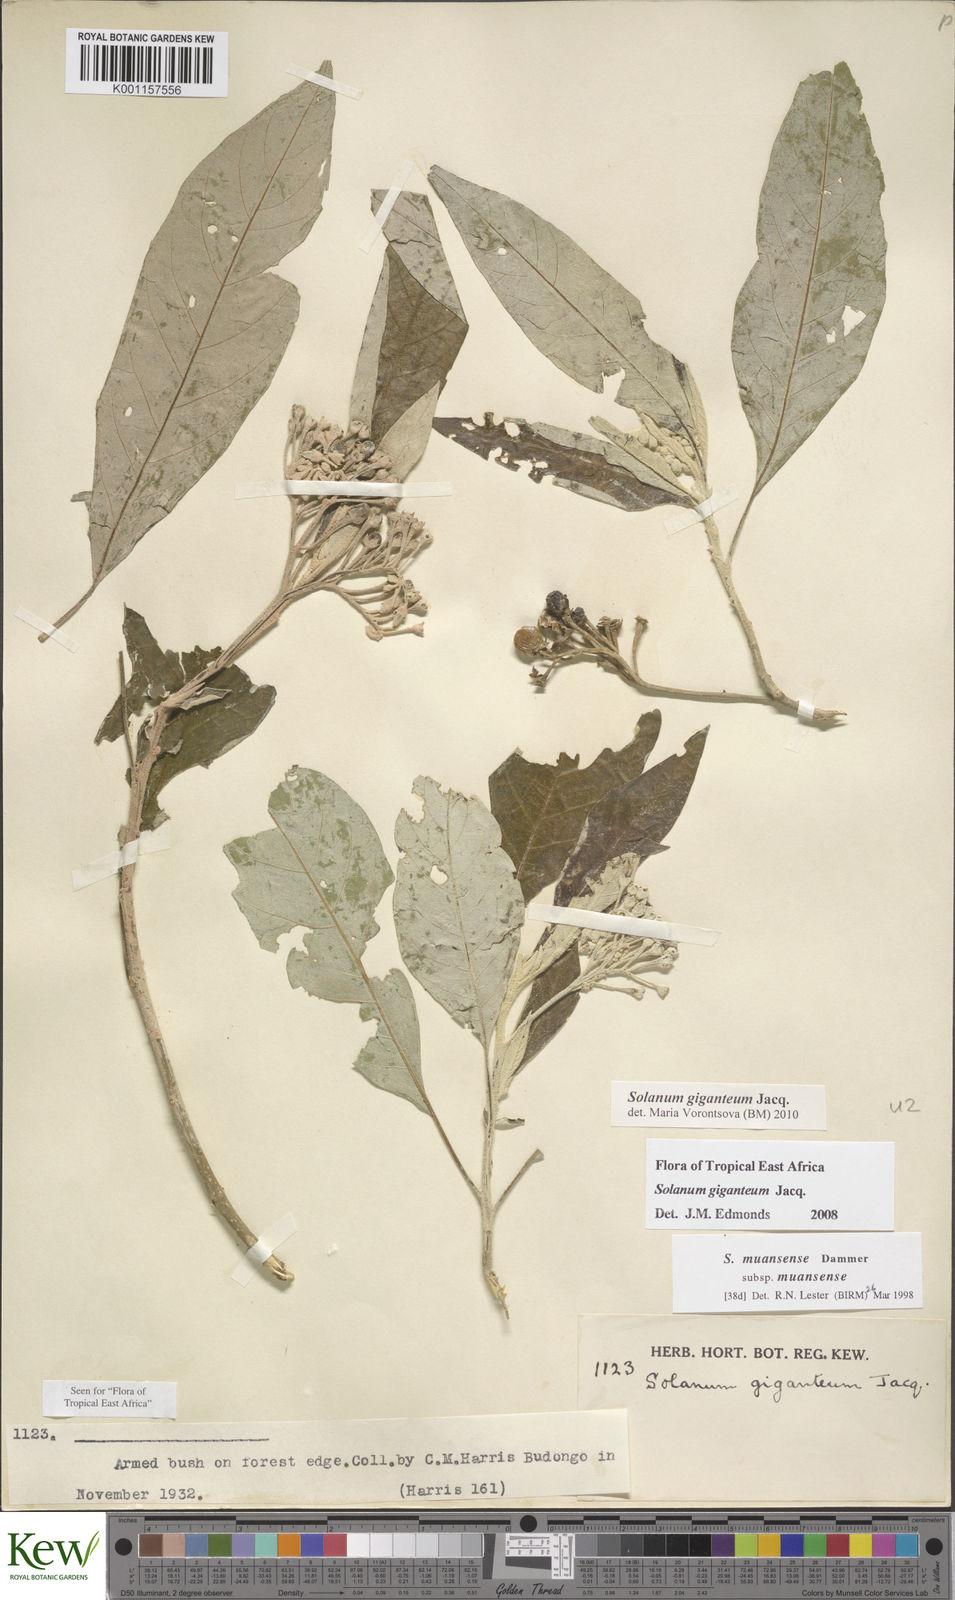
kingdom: Plantae
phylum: Tracheophyta
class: Magnoliopsida
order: Solanales
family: Solanaceae
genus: Solanum
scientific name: Solanum giganteum
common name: Healing-leaf-tree
